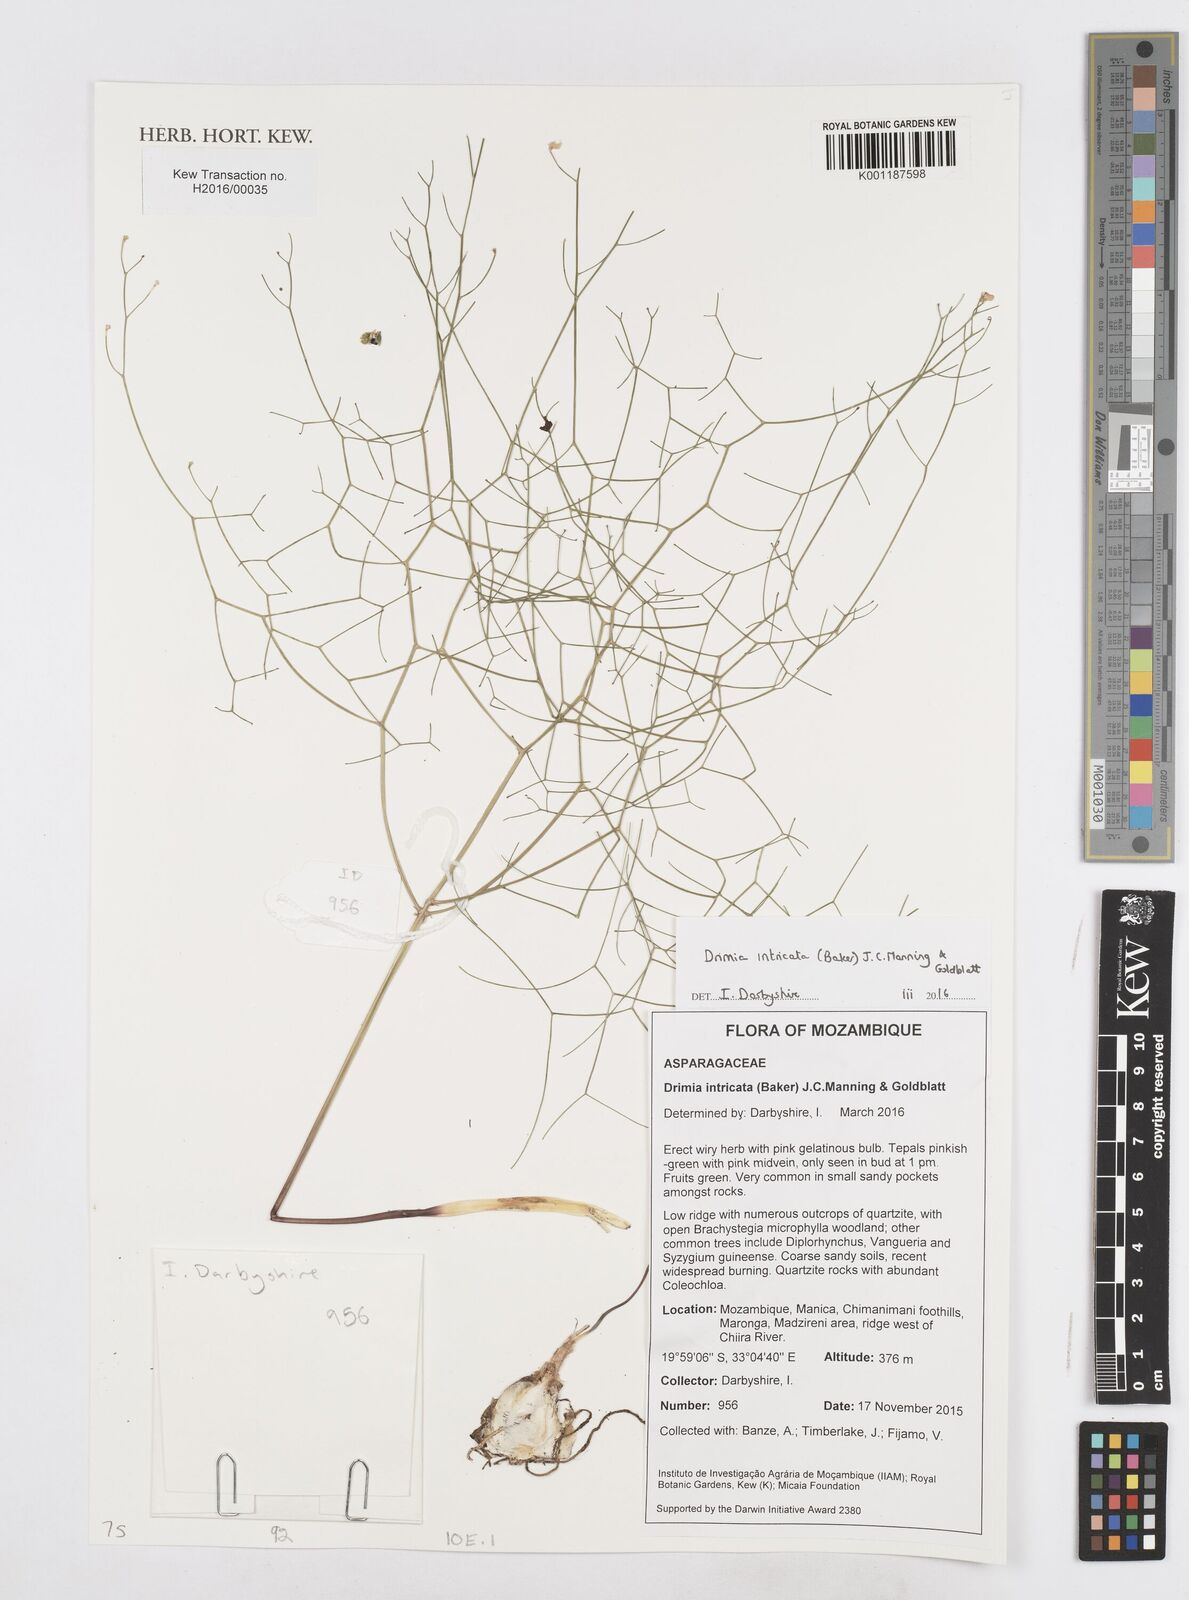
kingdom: Plantae
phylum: Tracheophyta
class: Liliopsida
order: Asparagales
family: Asparagaceae
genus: Drimia
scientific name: Drimia intricata
